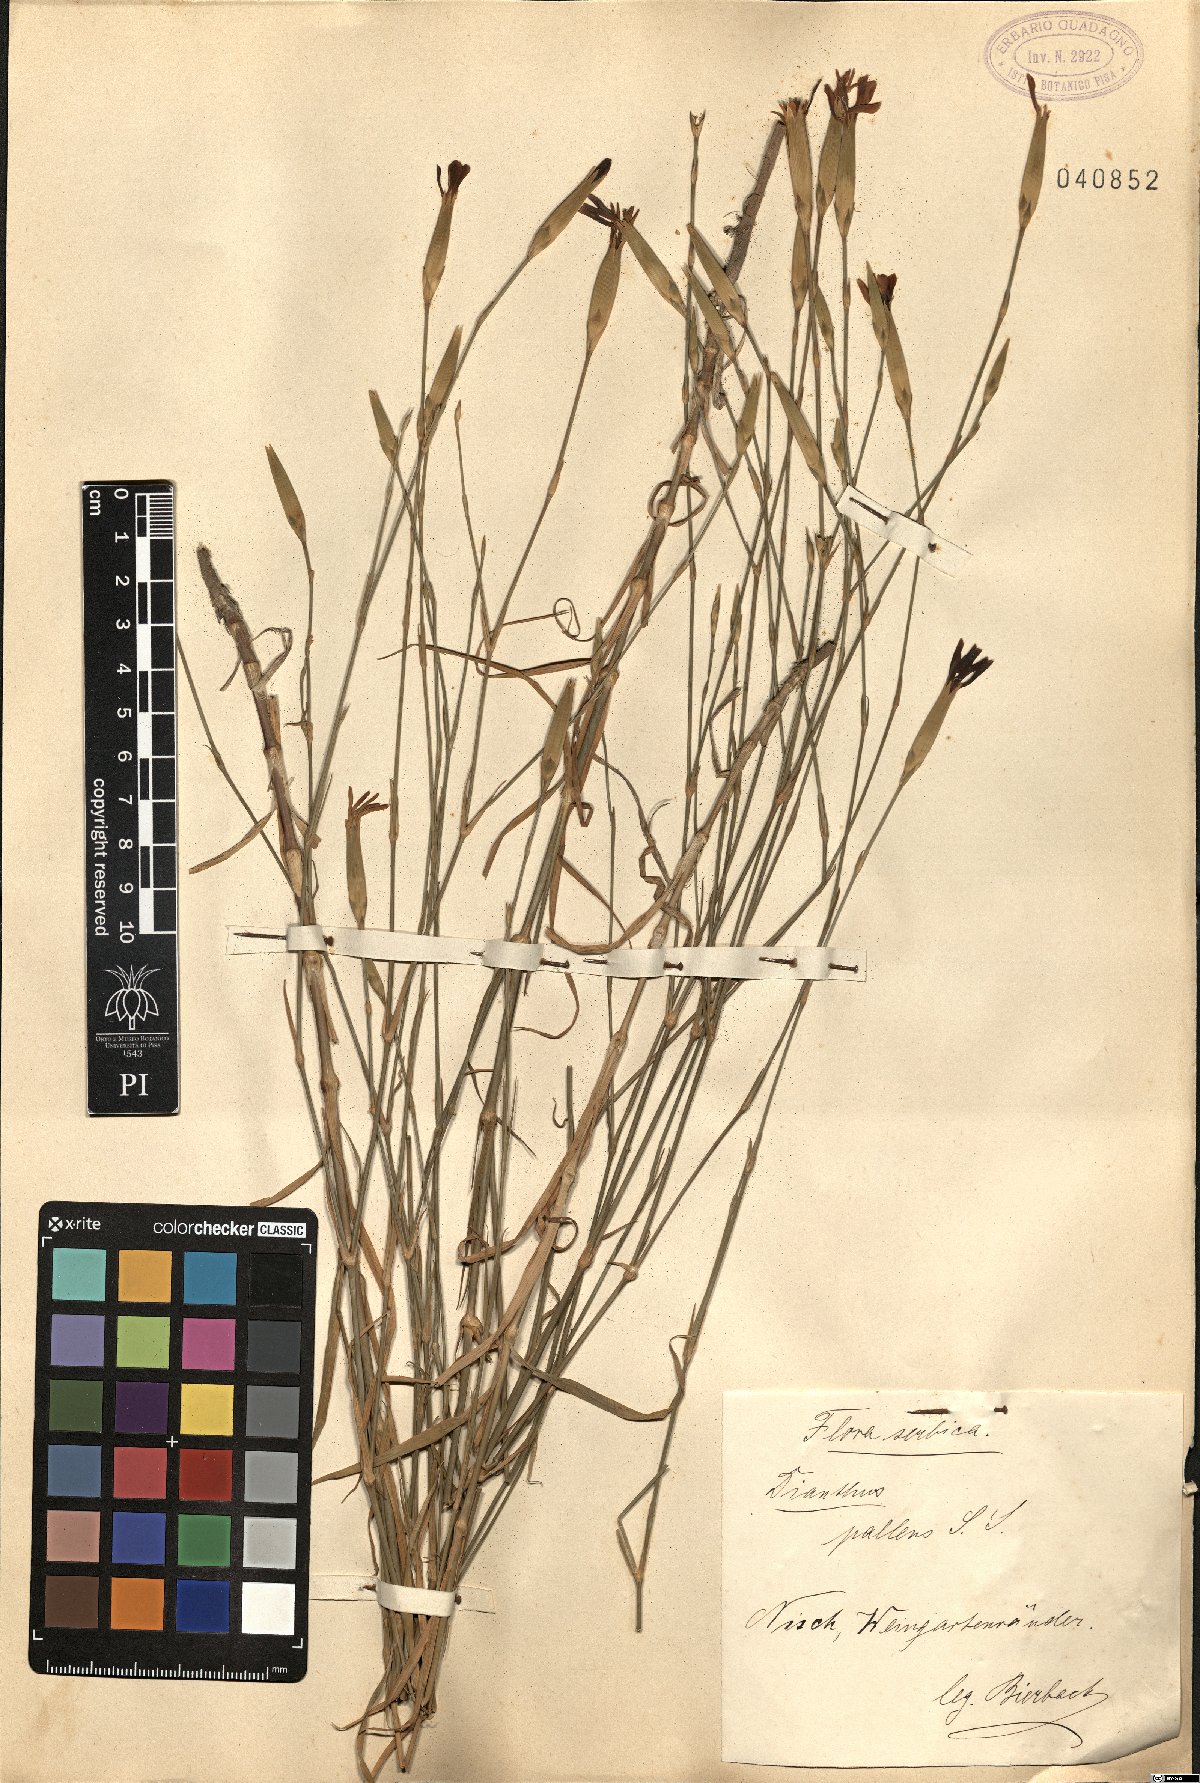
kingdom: Plantae
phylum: Tracheophyta
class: Magnoliopsida
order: Caryophyllales
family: Caryophyllaceae
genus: Dianthus
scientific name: Dianthus monadelphus
